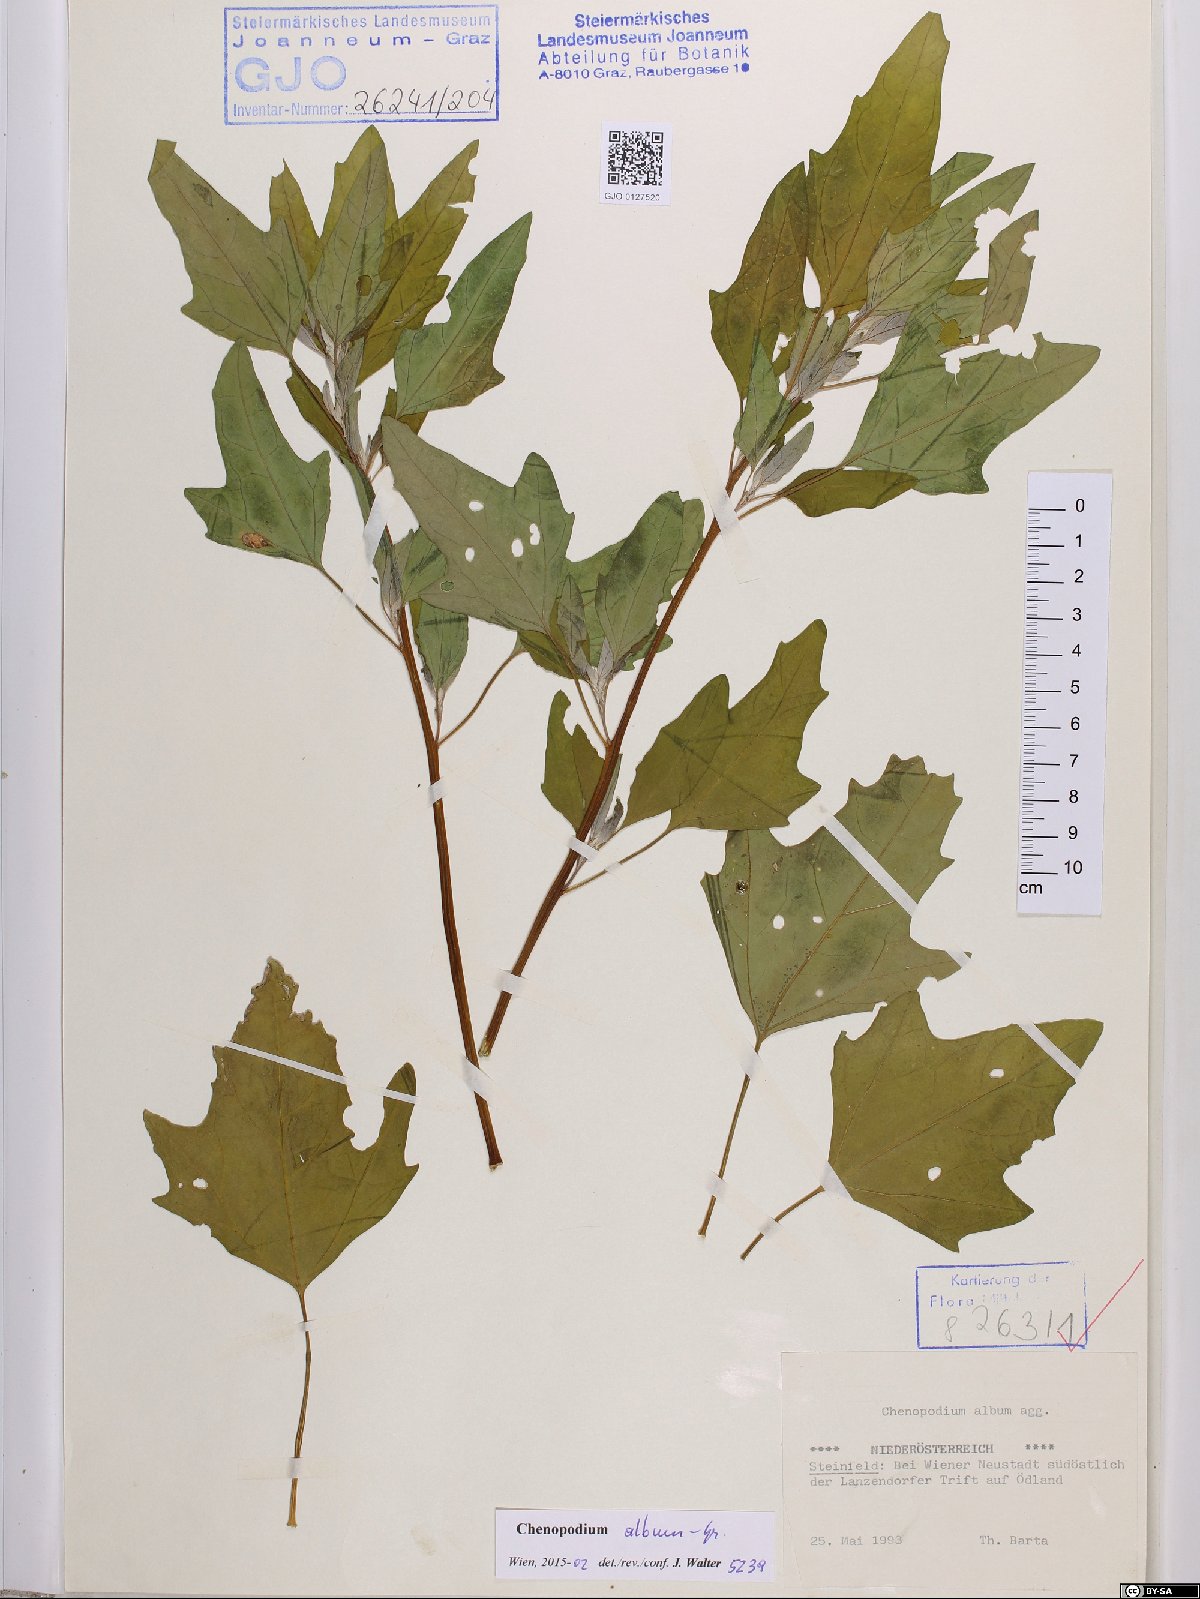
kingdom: Plantae
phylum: Tracheophyta
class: Magnoliopsida
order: Caryophyllales
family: Amaranthaceae
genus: Chenopodium
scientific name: Chenopodium album
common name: Fat-hen
